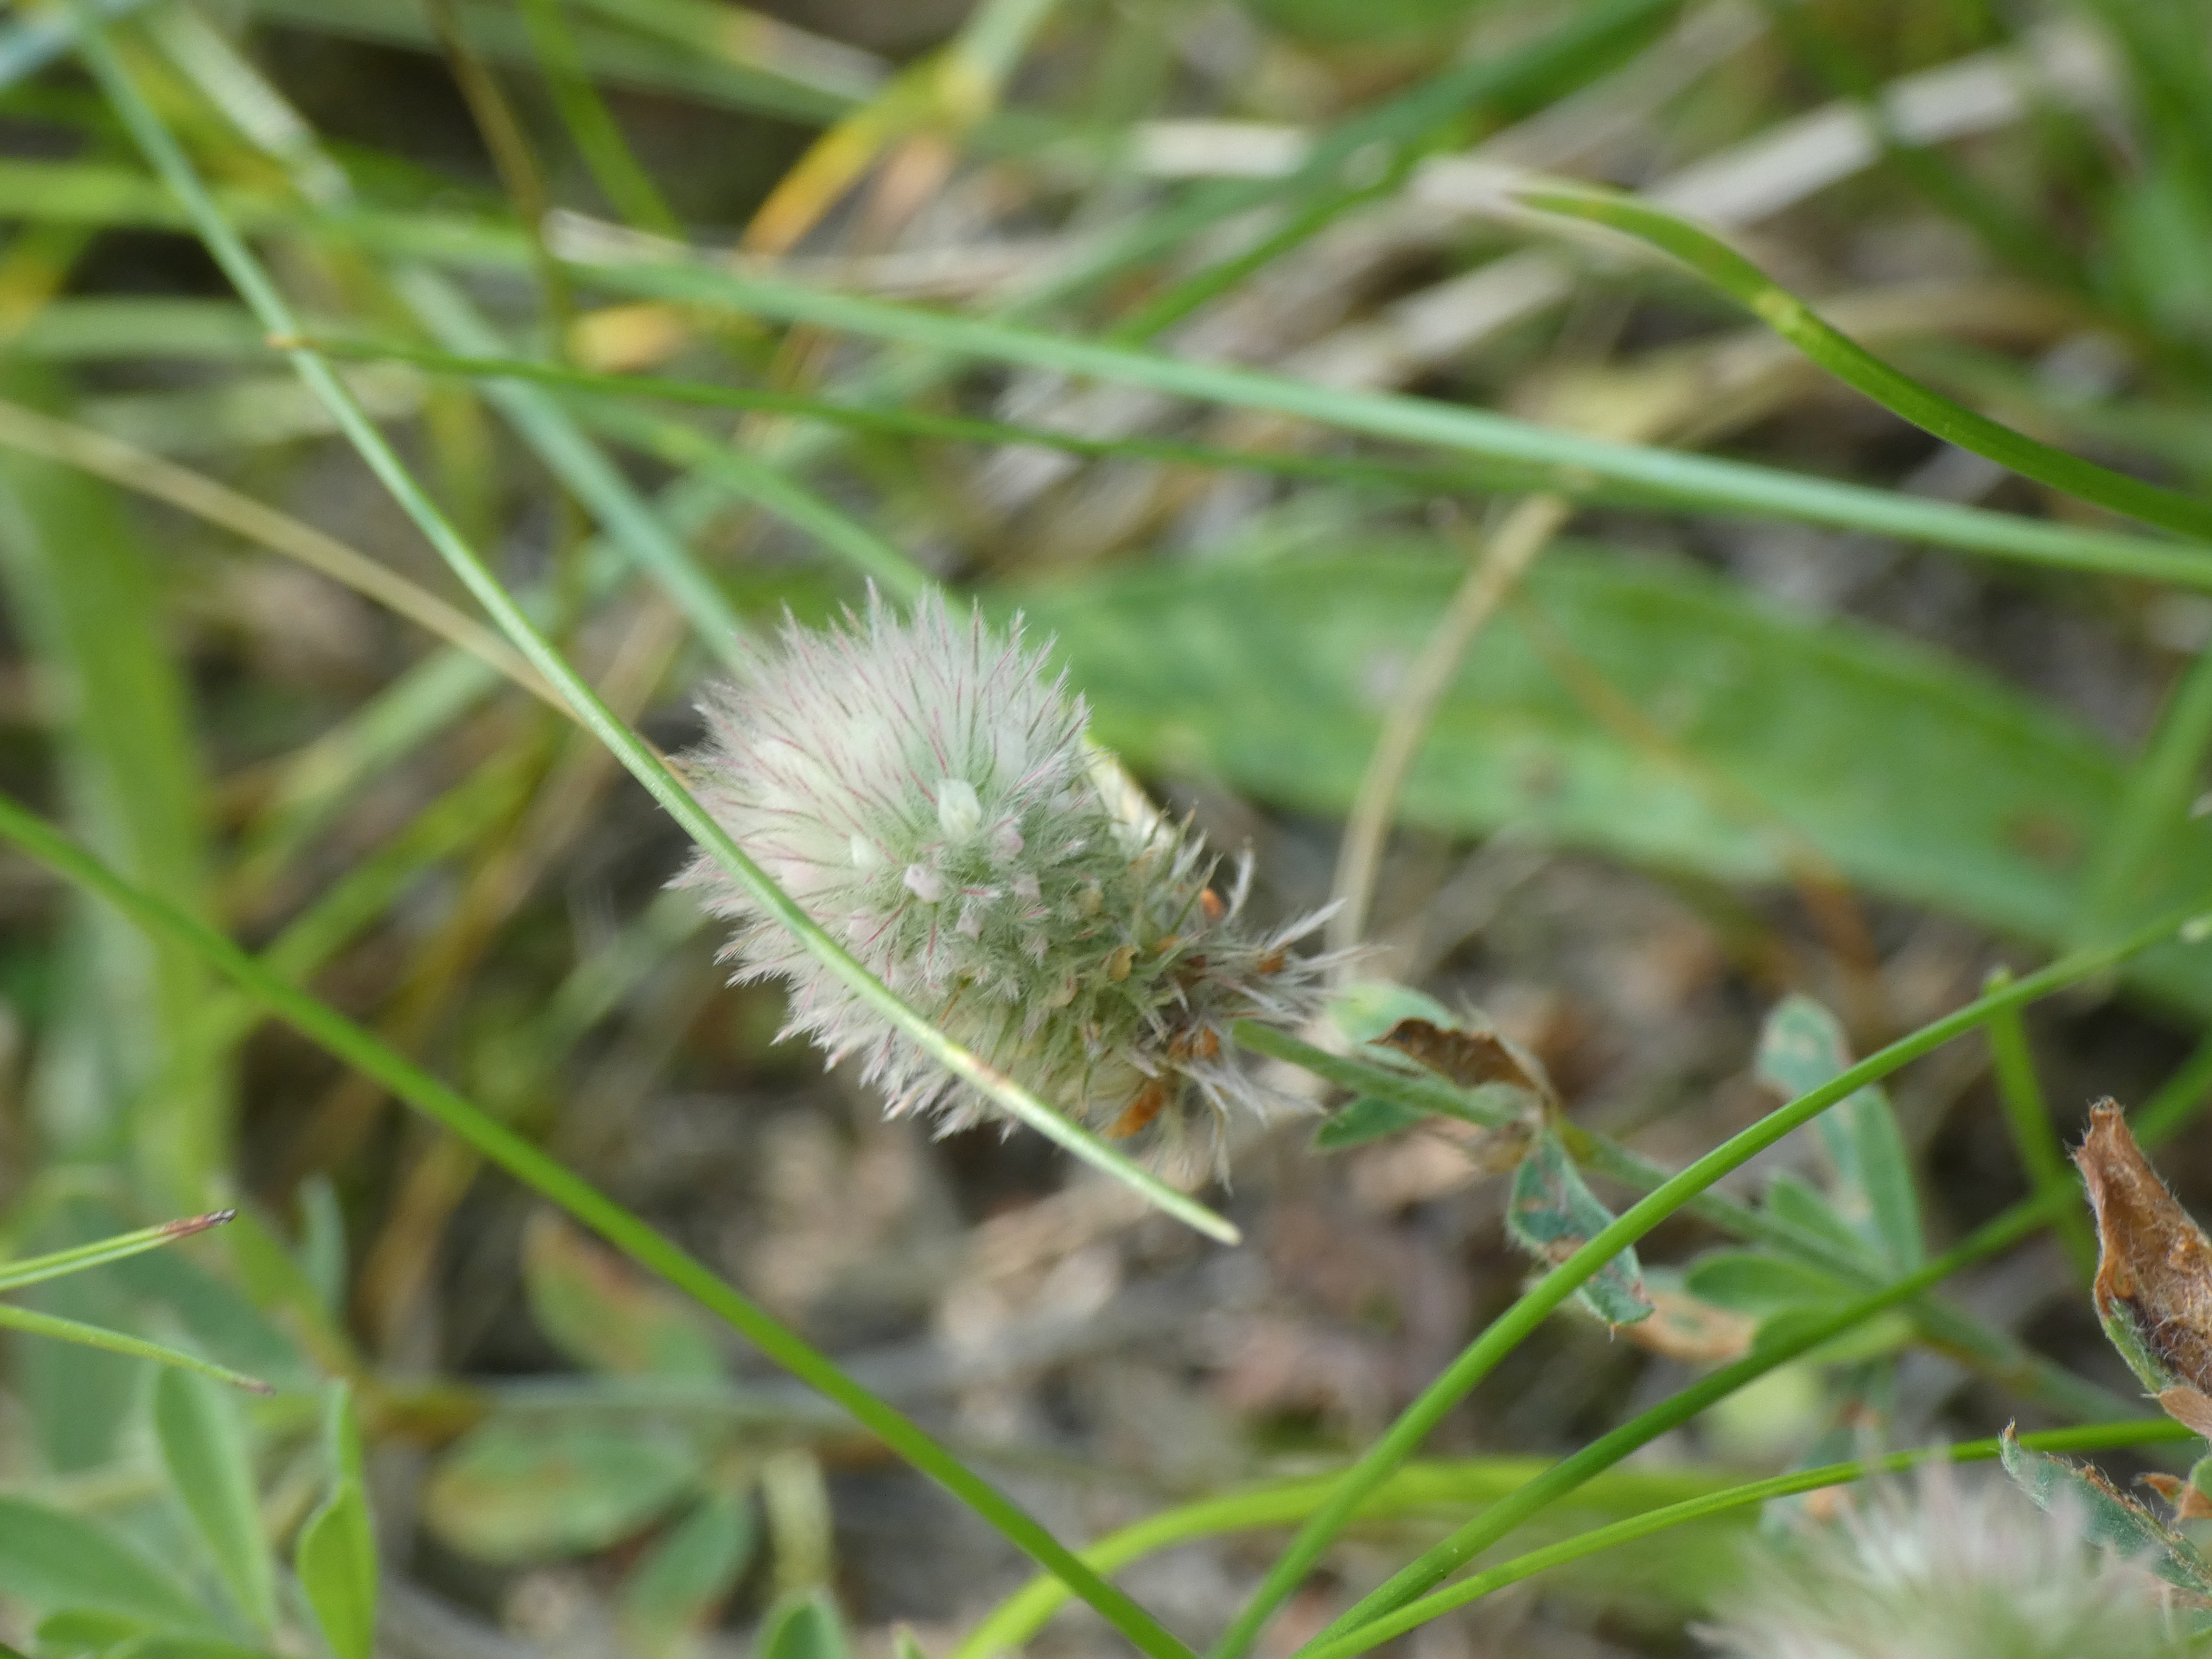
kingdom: Plantae
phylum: Tracheophyta
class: Magnoliopsida
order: Fabales
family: Fabaceae
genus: Trifolium
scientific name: Trifolium arvense
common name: Hare-kløver
